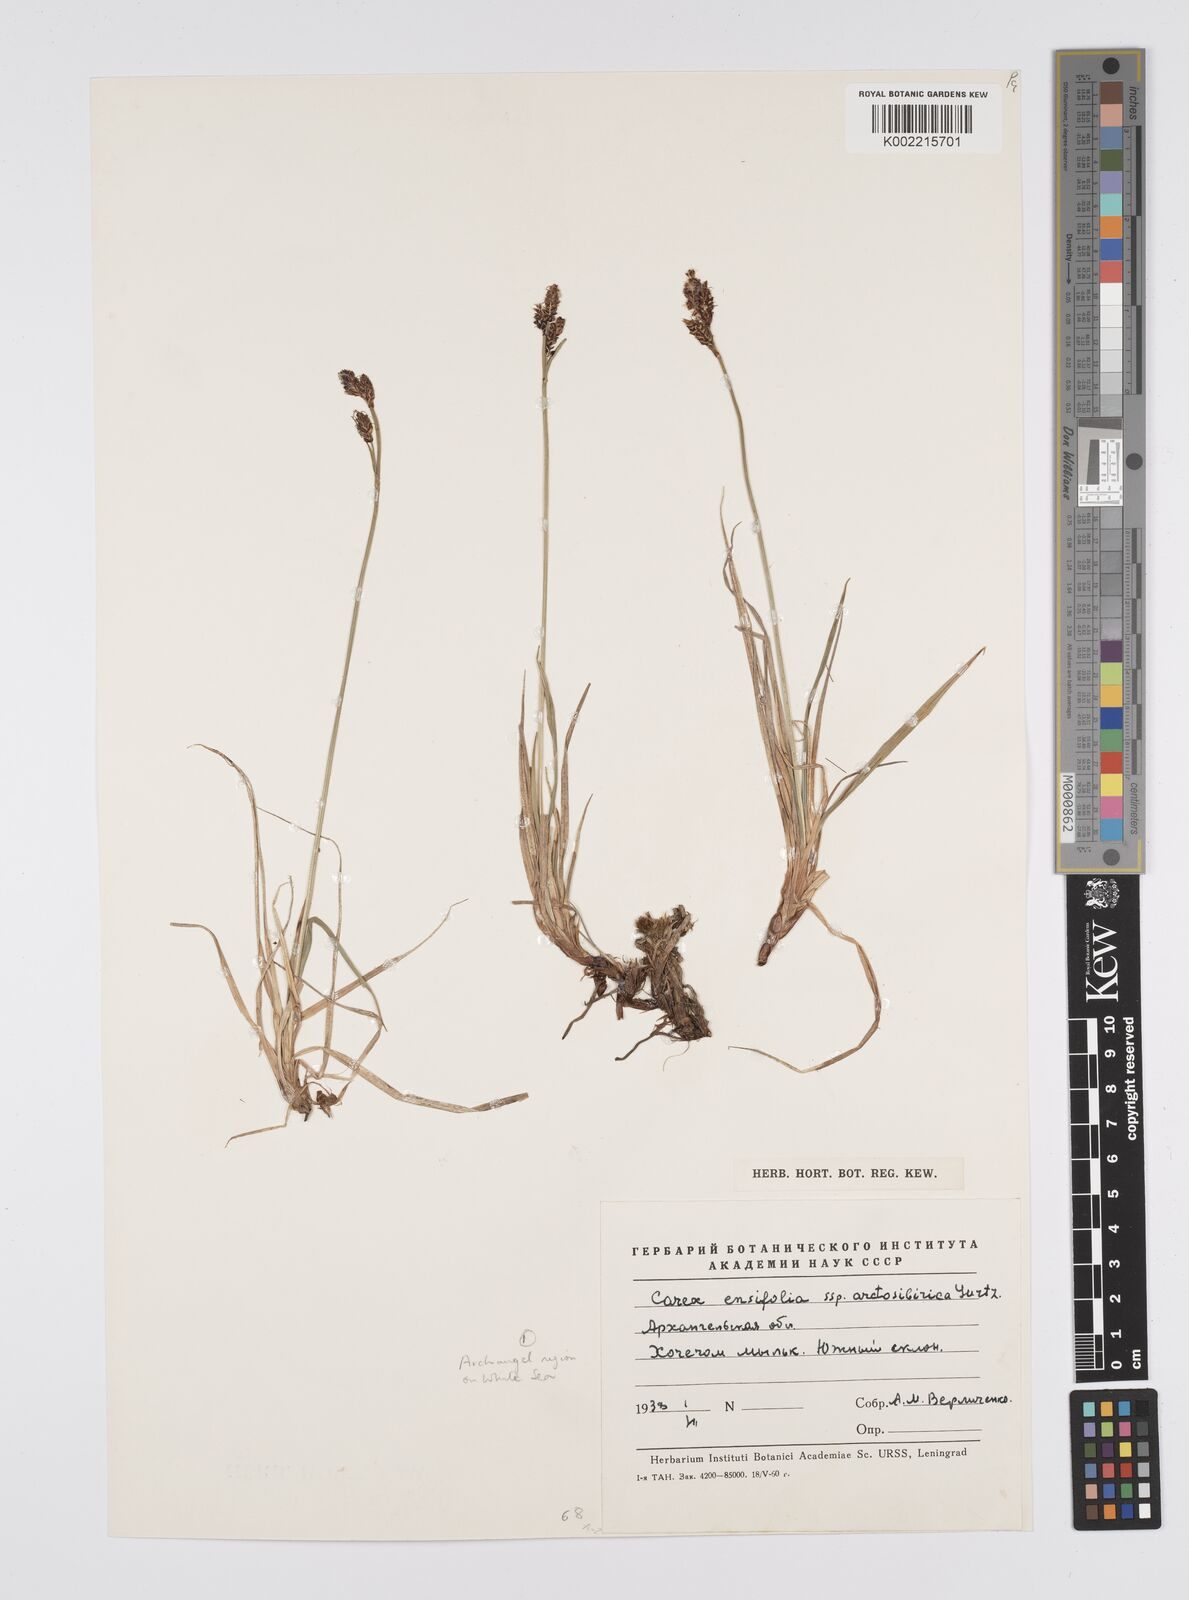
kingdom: Plantae
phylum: Tracheophyta
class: Liliopsida
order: Poales
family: Cyperaceae
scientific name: Cyperaceae
